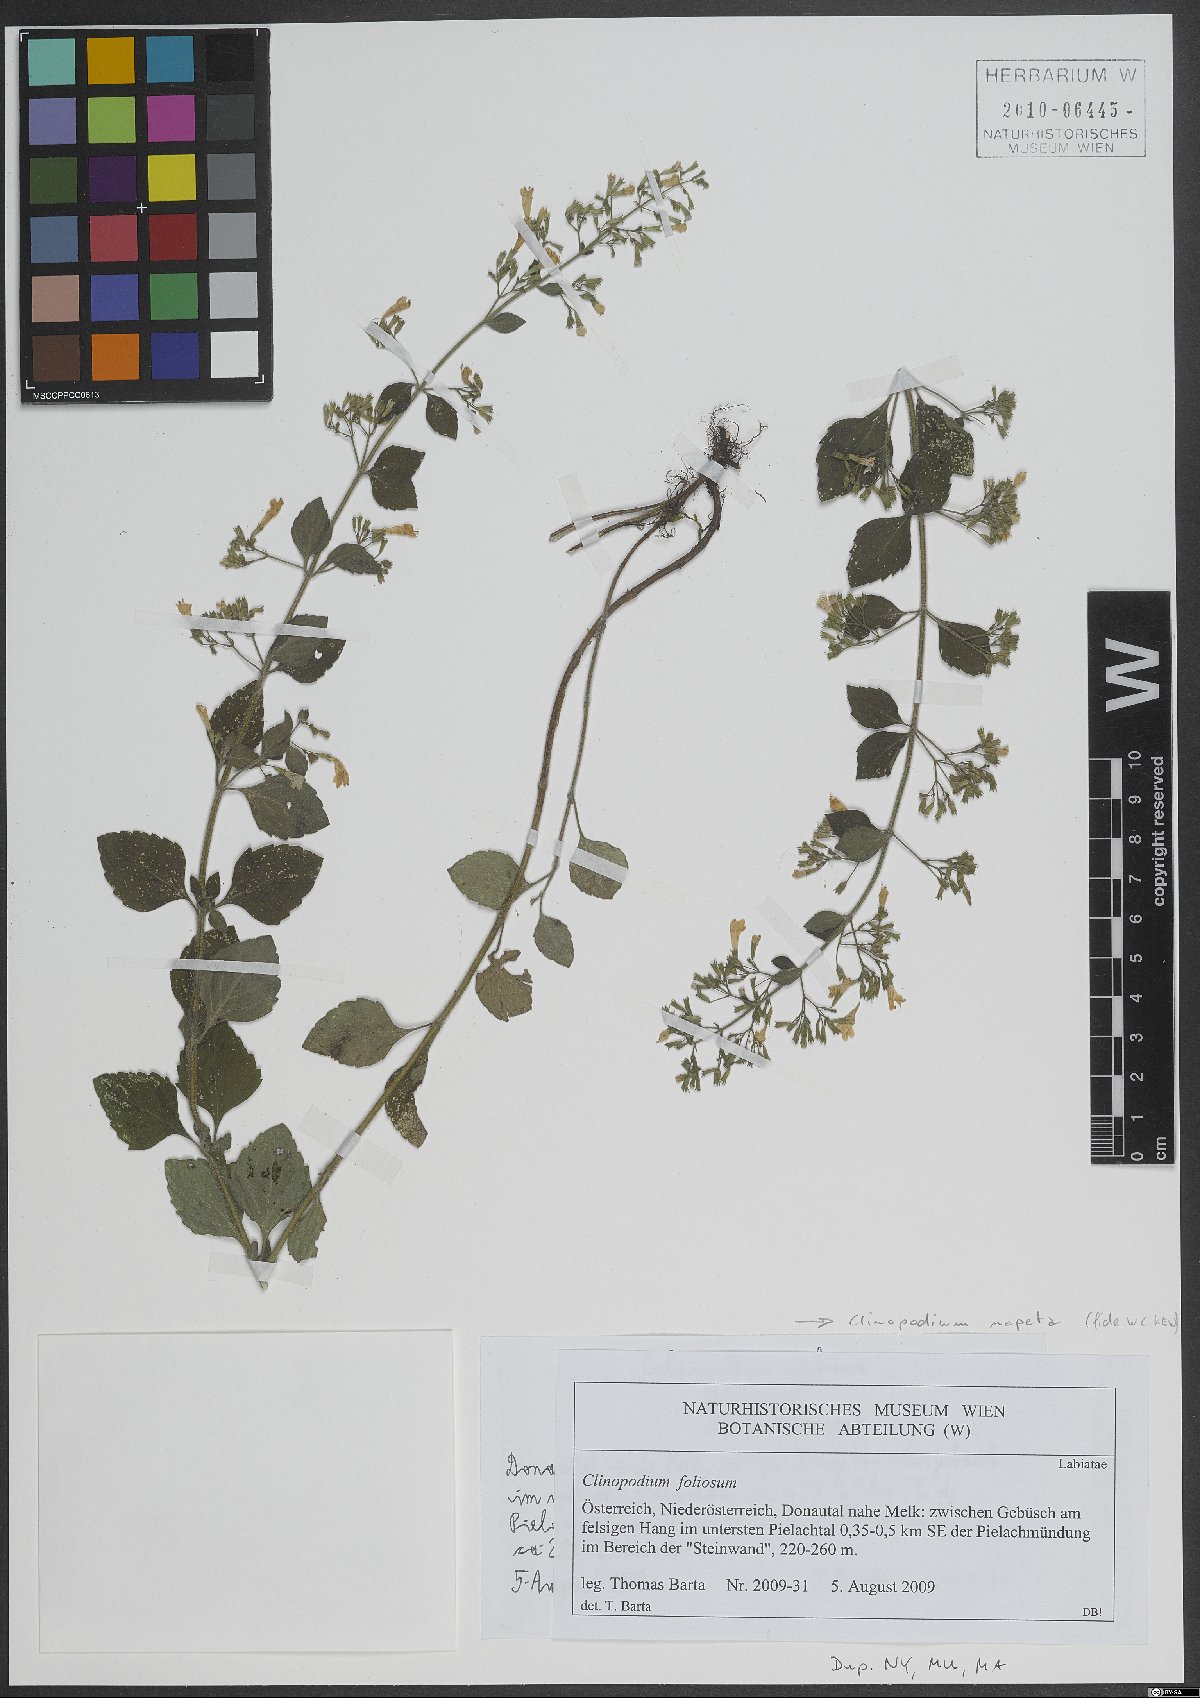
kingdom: Plantae
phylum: Tracheophyta
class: Magnoliopsida
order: Lamiales
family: Lamiaceae
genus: Clinopodium
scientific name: Clinopodium nepeta
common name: Lesser calamint
